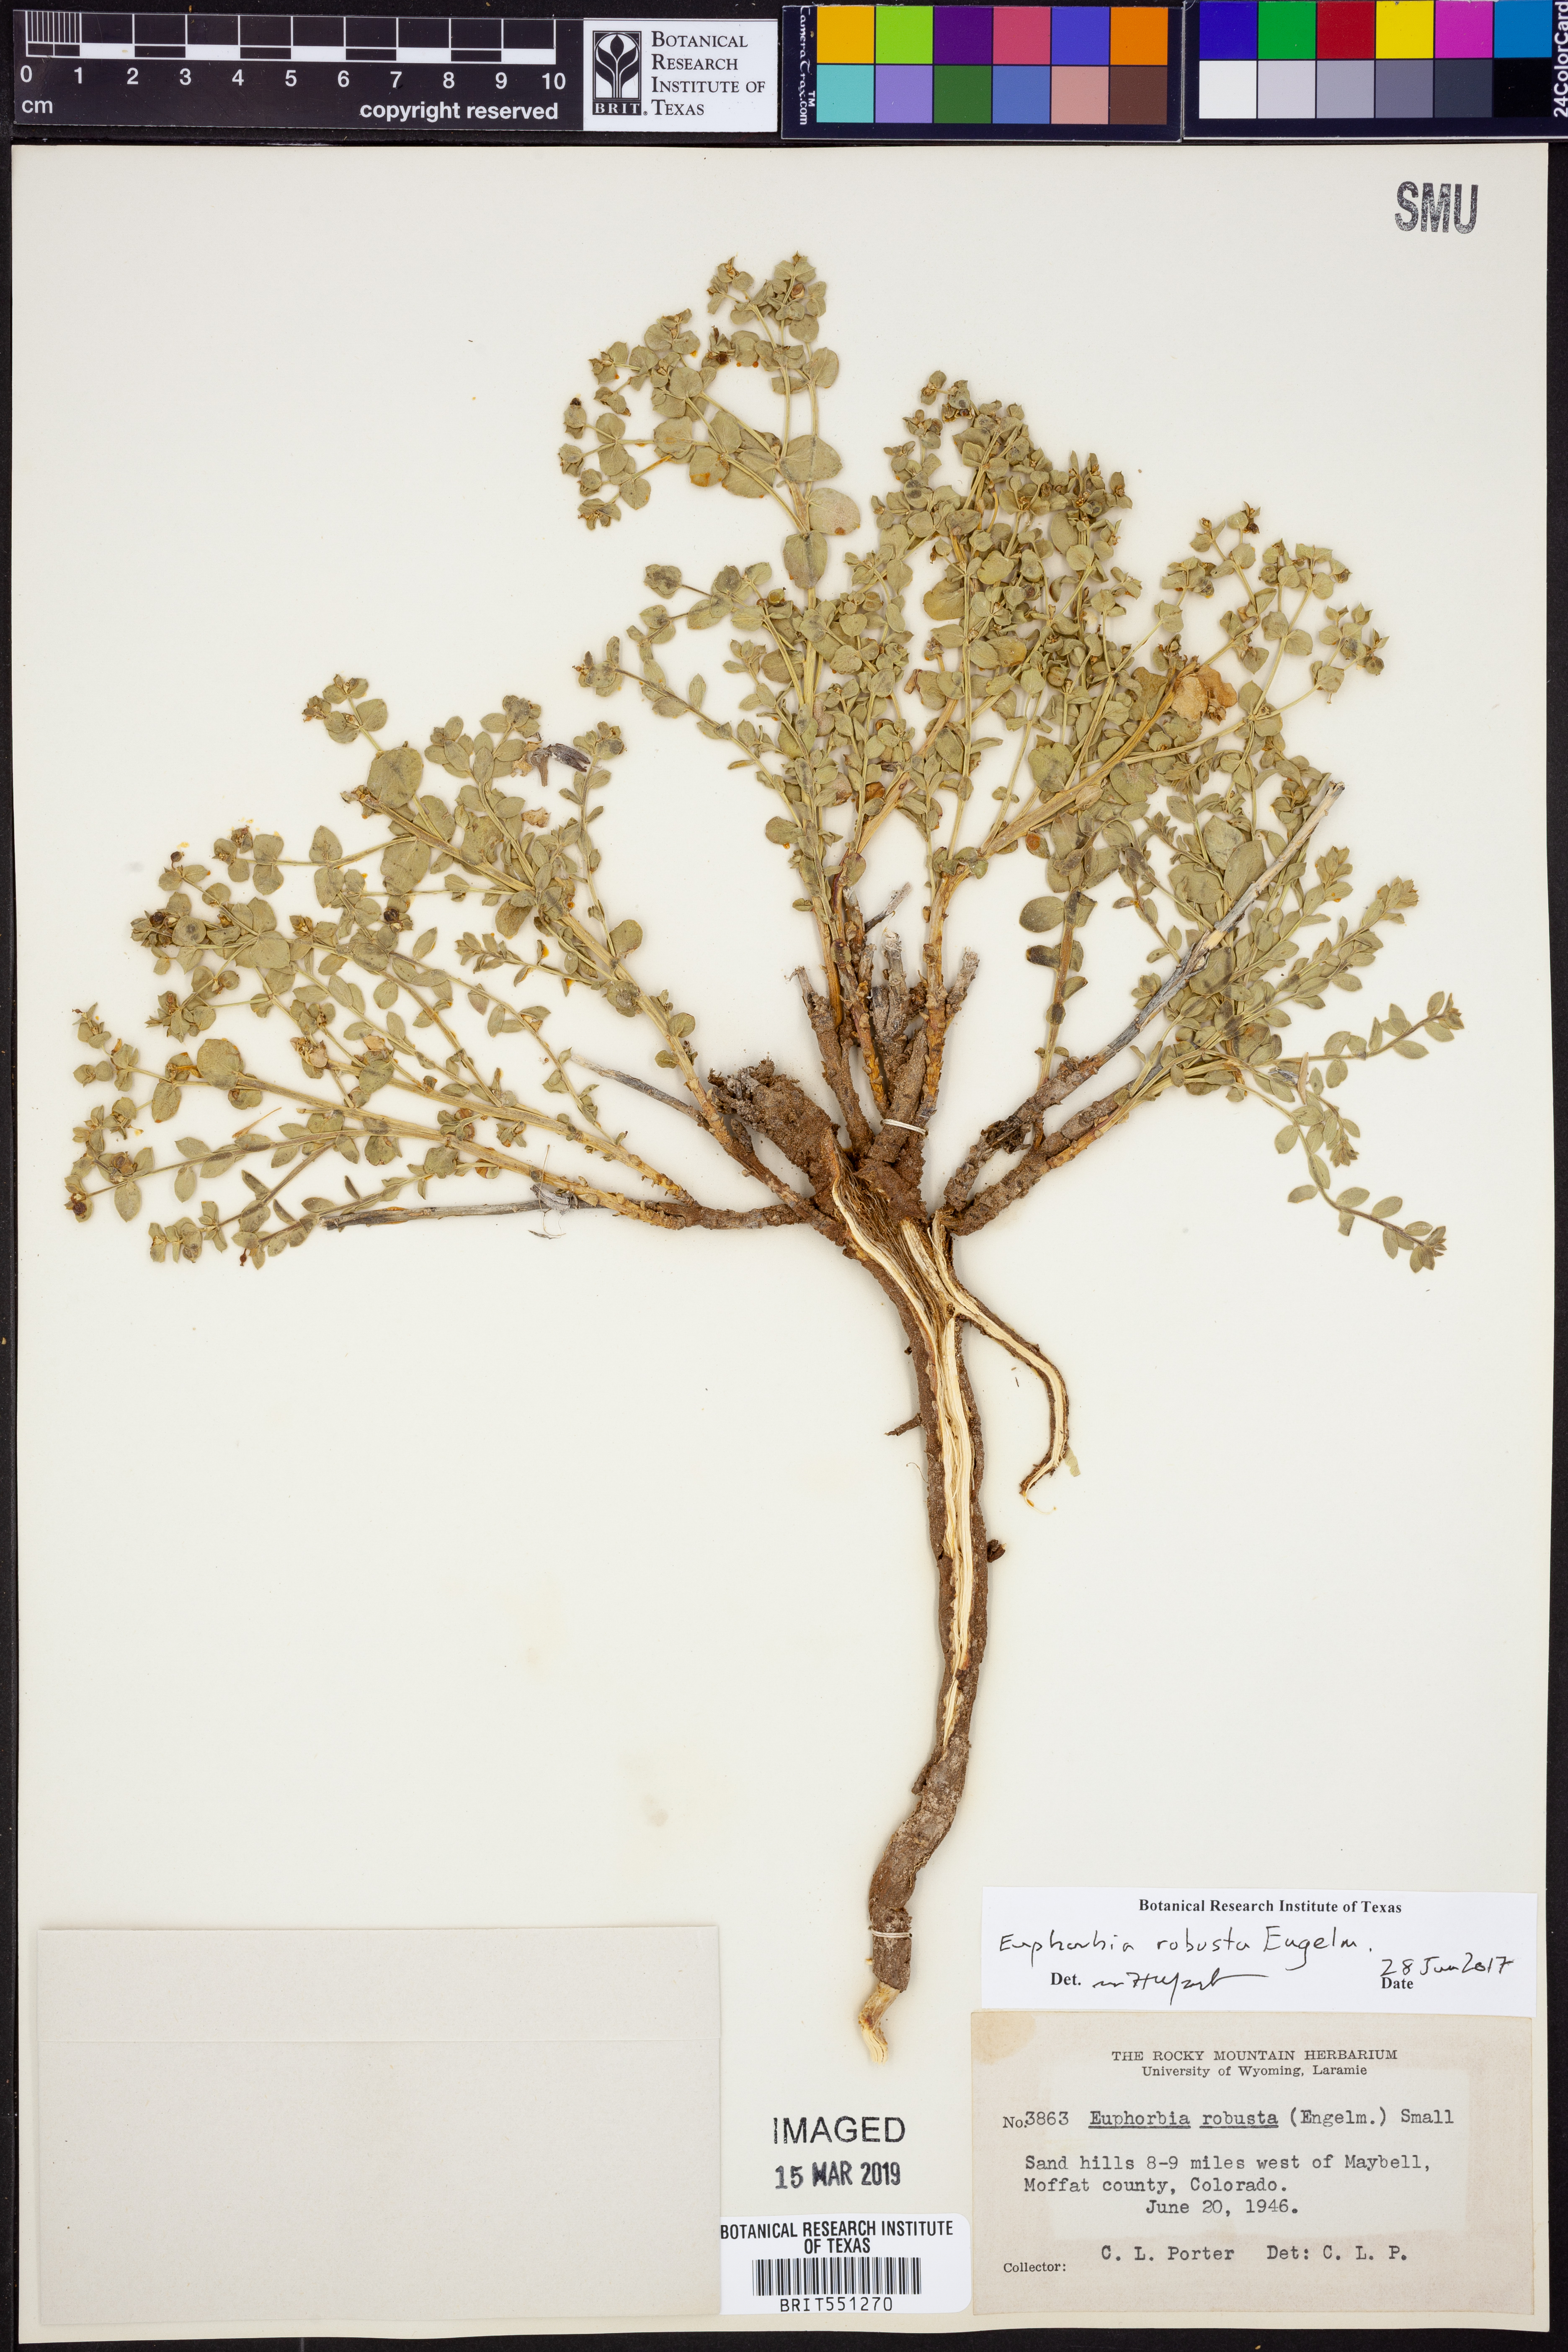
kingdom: Plantae
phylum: Tracheophyta
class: Magnoliopsida
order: Malpighiales
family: Euphorbiaceae
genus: Euphorbia
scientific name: Euphorbia brachycera
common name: Shorthorn spurge
